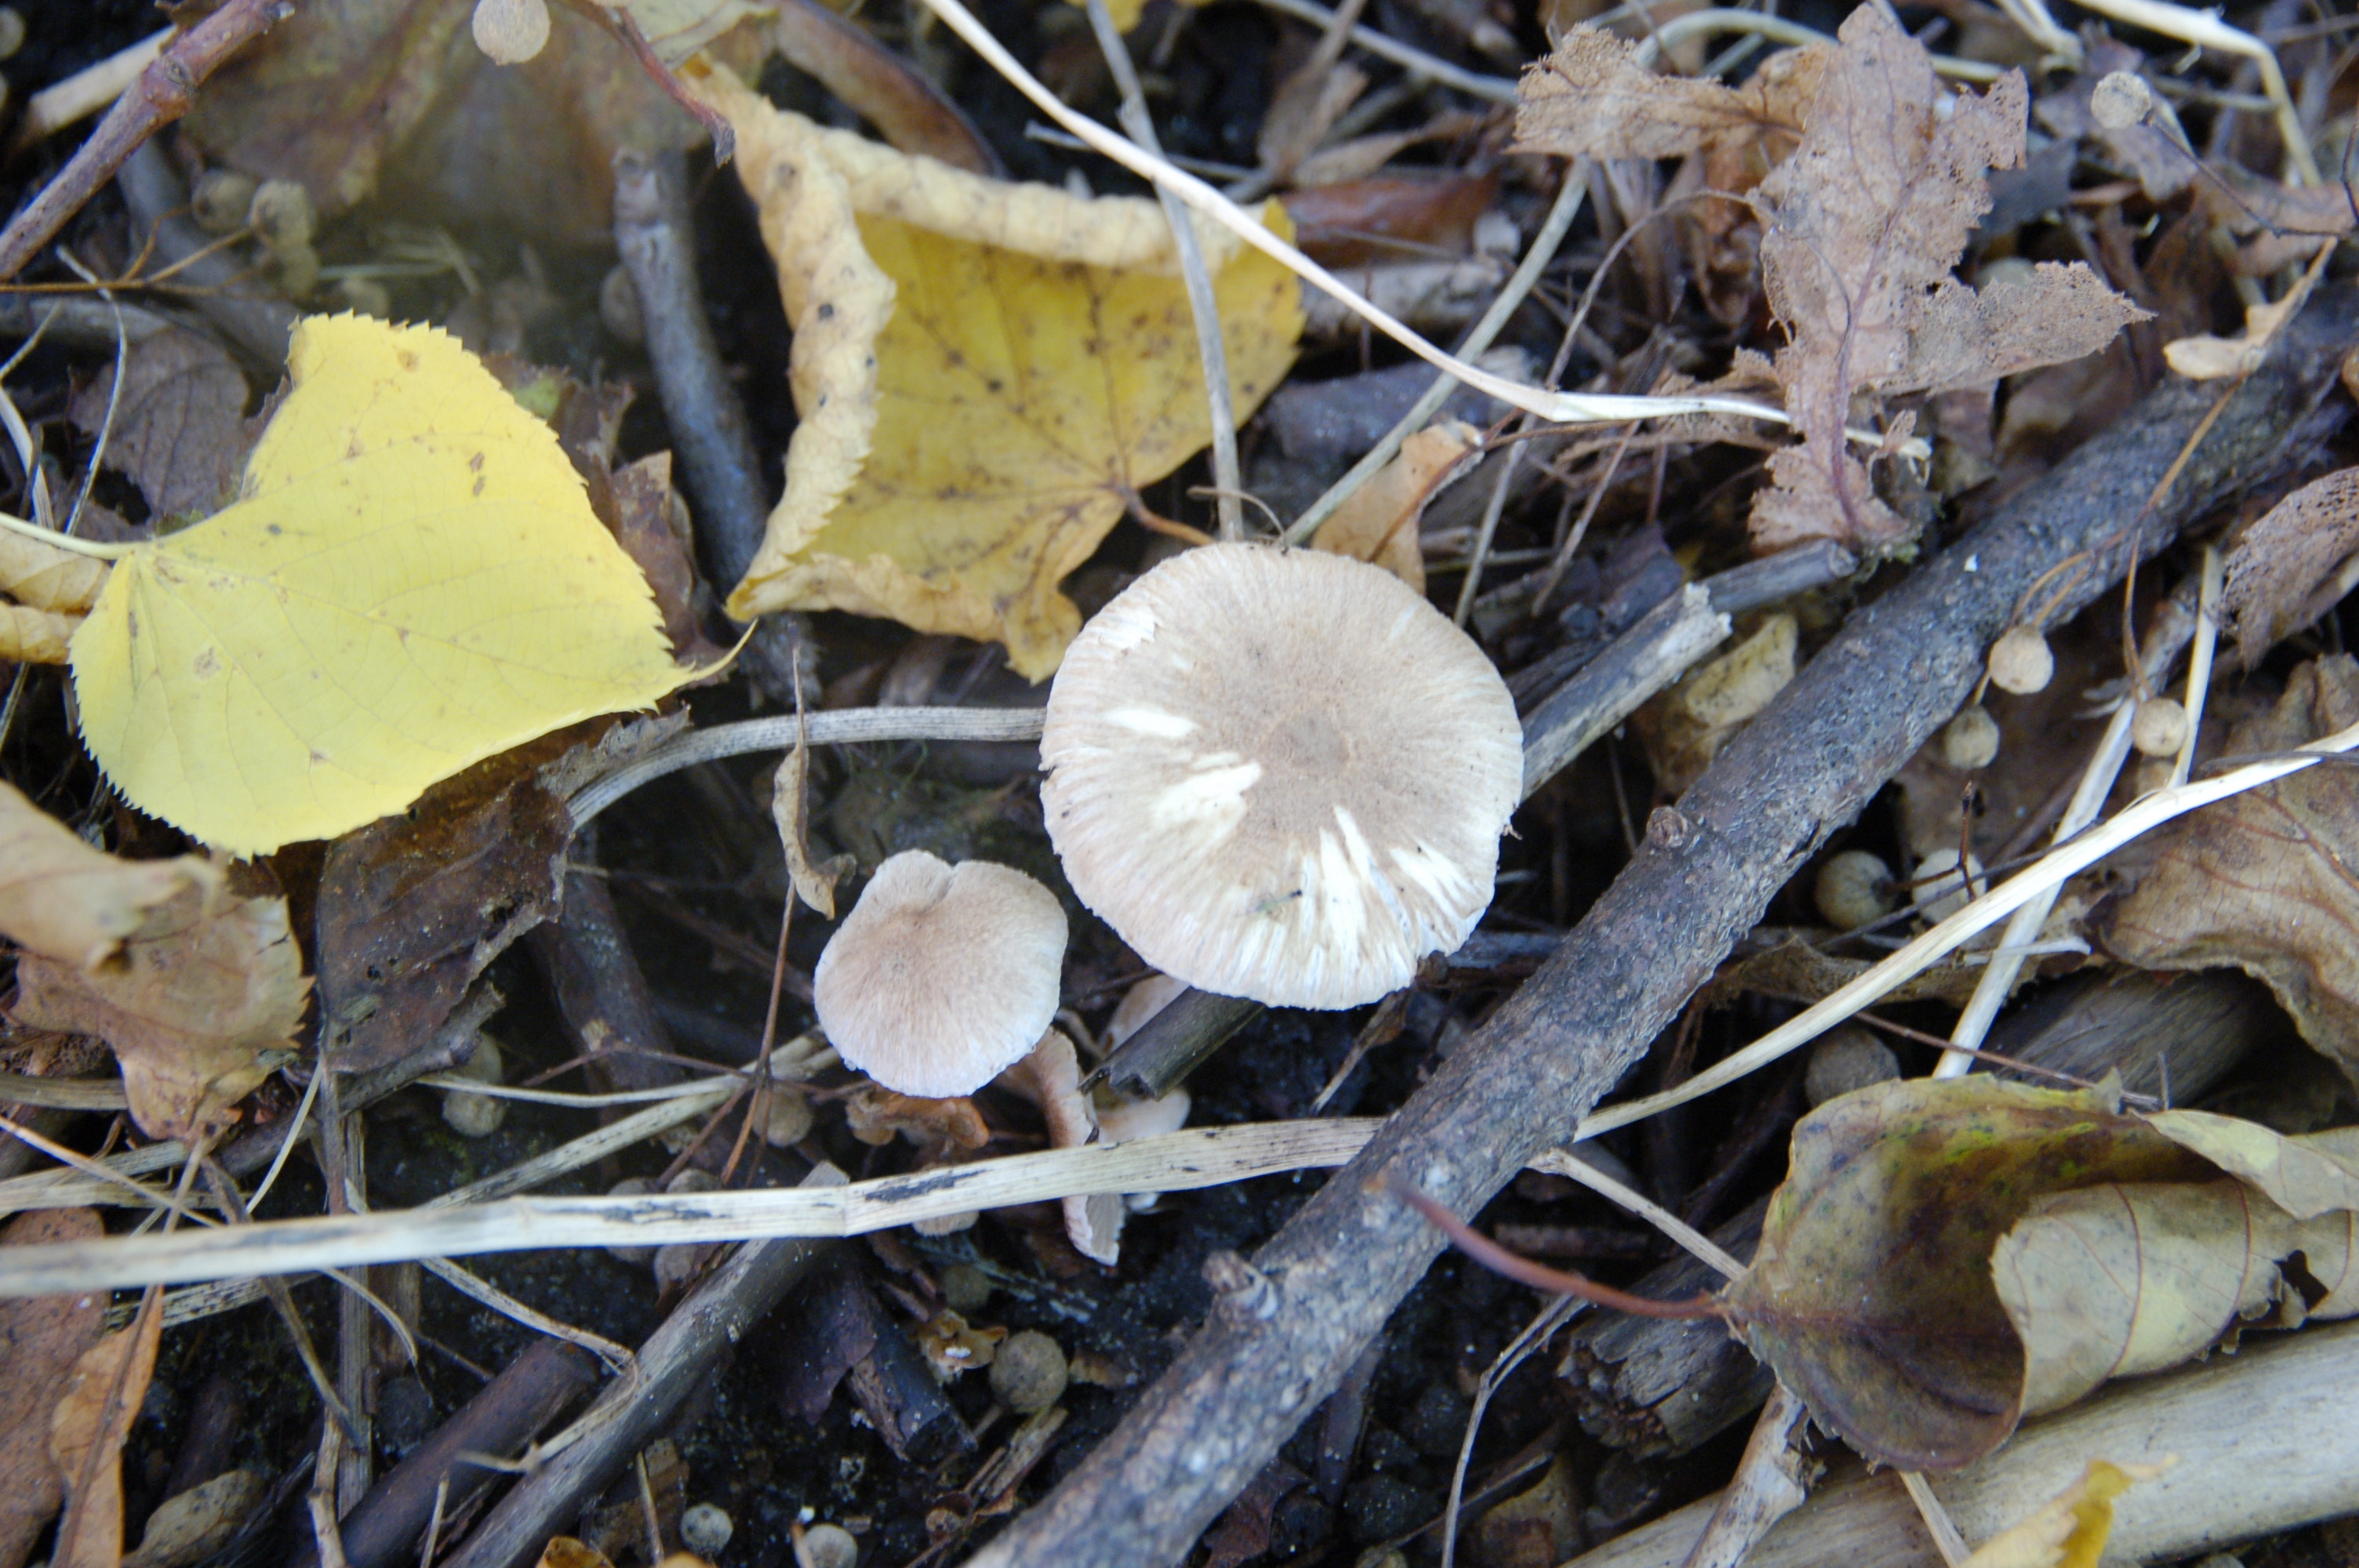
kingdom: Fungi
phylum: Basidiomycota
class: Agaricomycetes
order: Agaricales
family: Inocybaceae
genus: Inocybe
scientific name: Inocybe flocculosa
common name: Fleecy fibrecap
